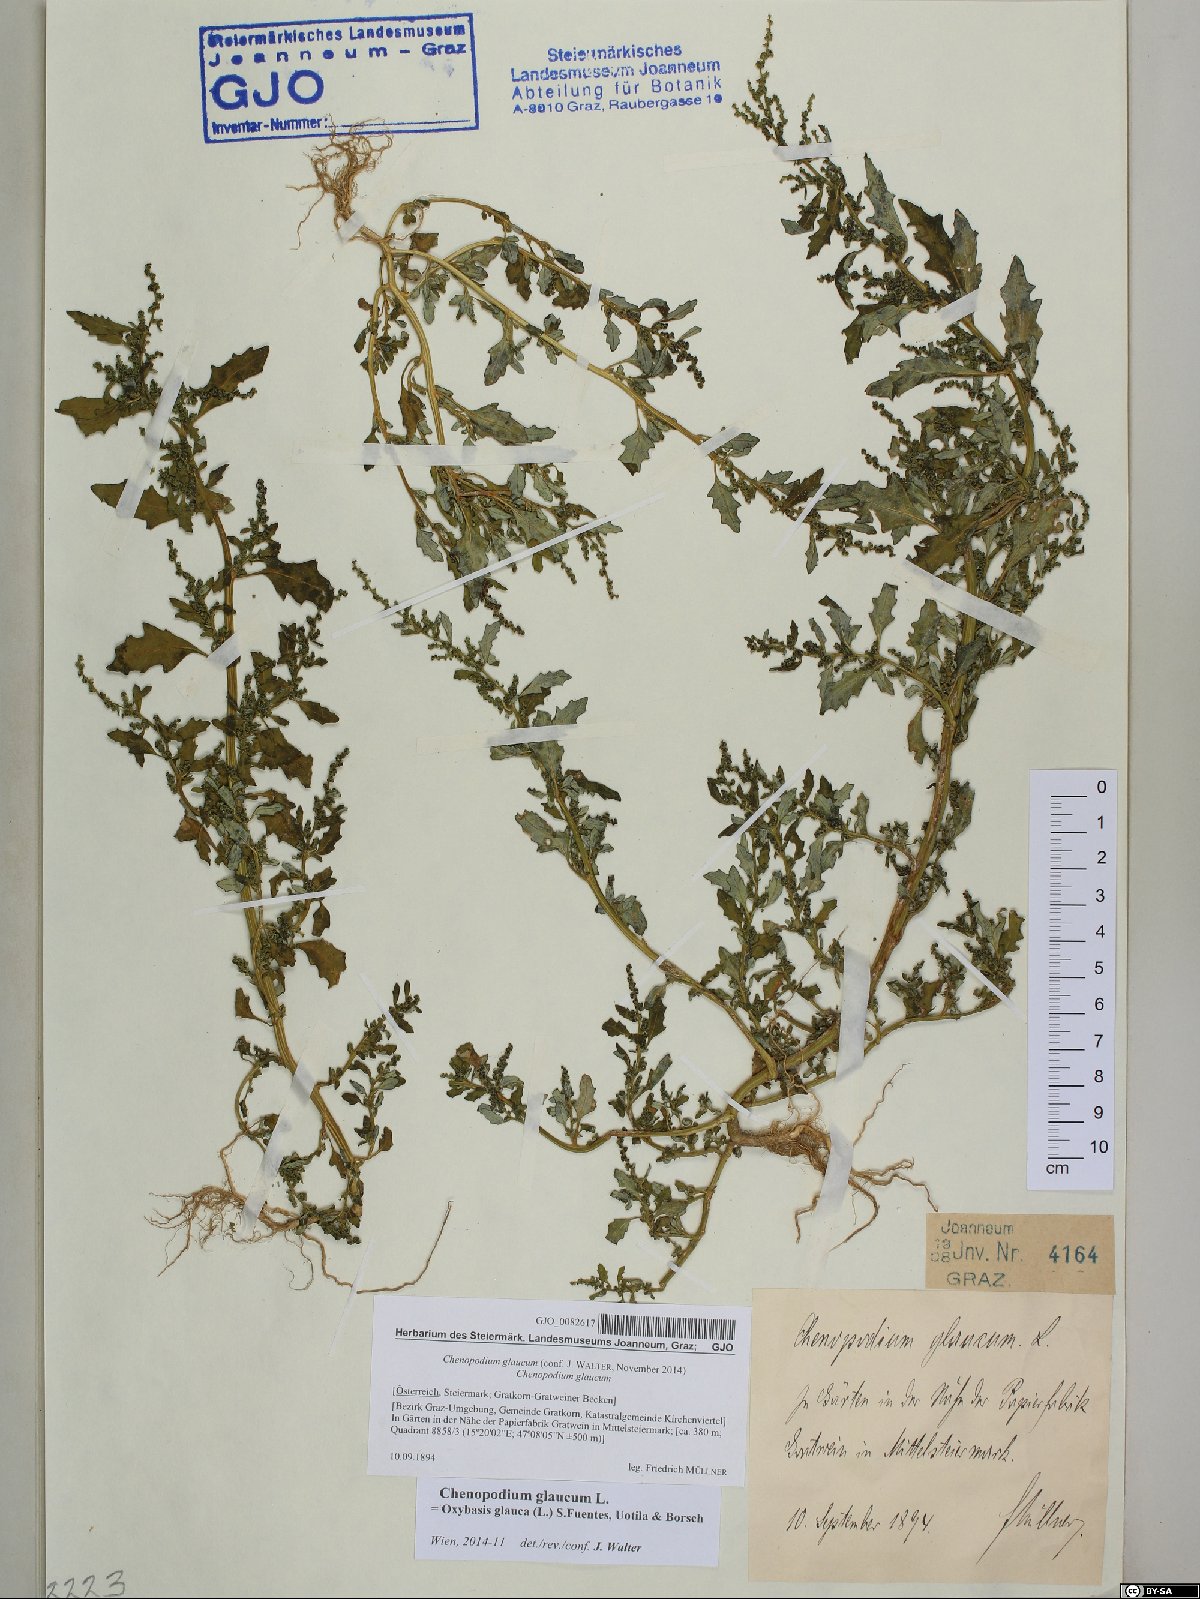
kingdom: Plantae
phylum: Tracheophyta
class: Magnoliopsida
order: Caryophyllales
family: Amaranthaceae
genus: Oxybasis
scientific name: Oxybasis glauca
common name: Glaucous goosefoot
